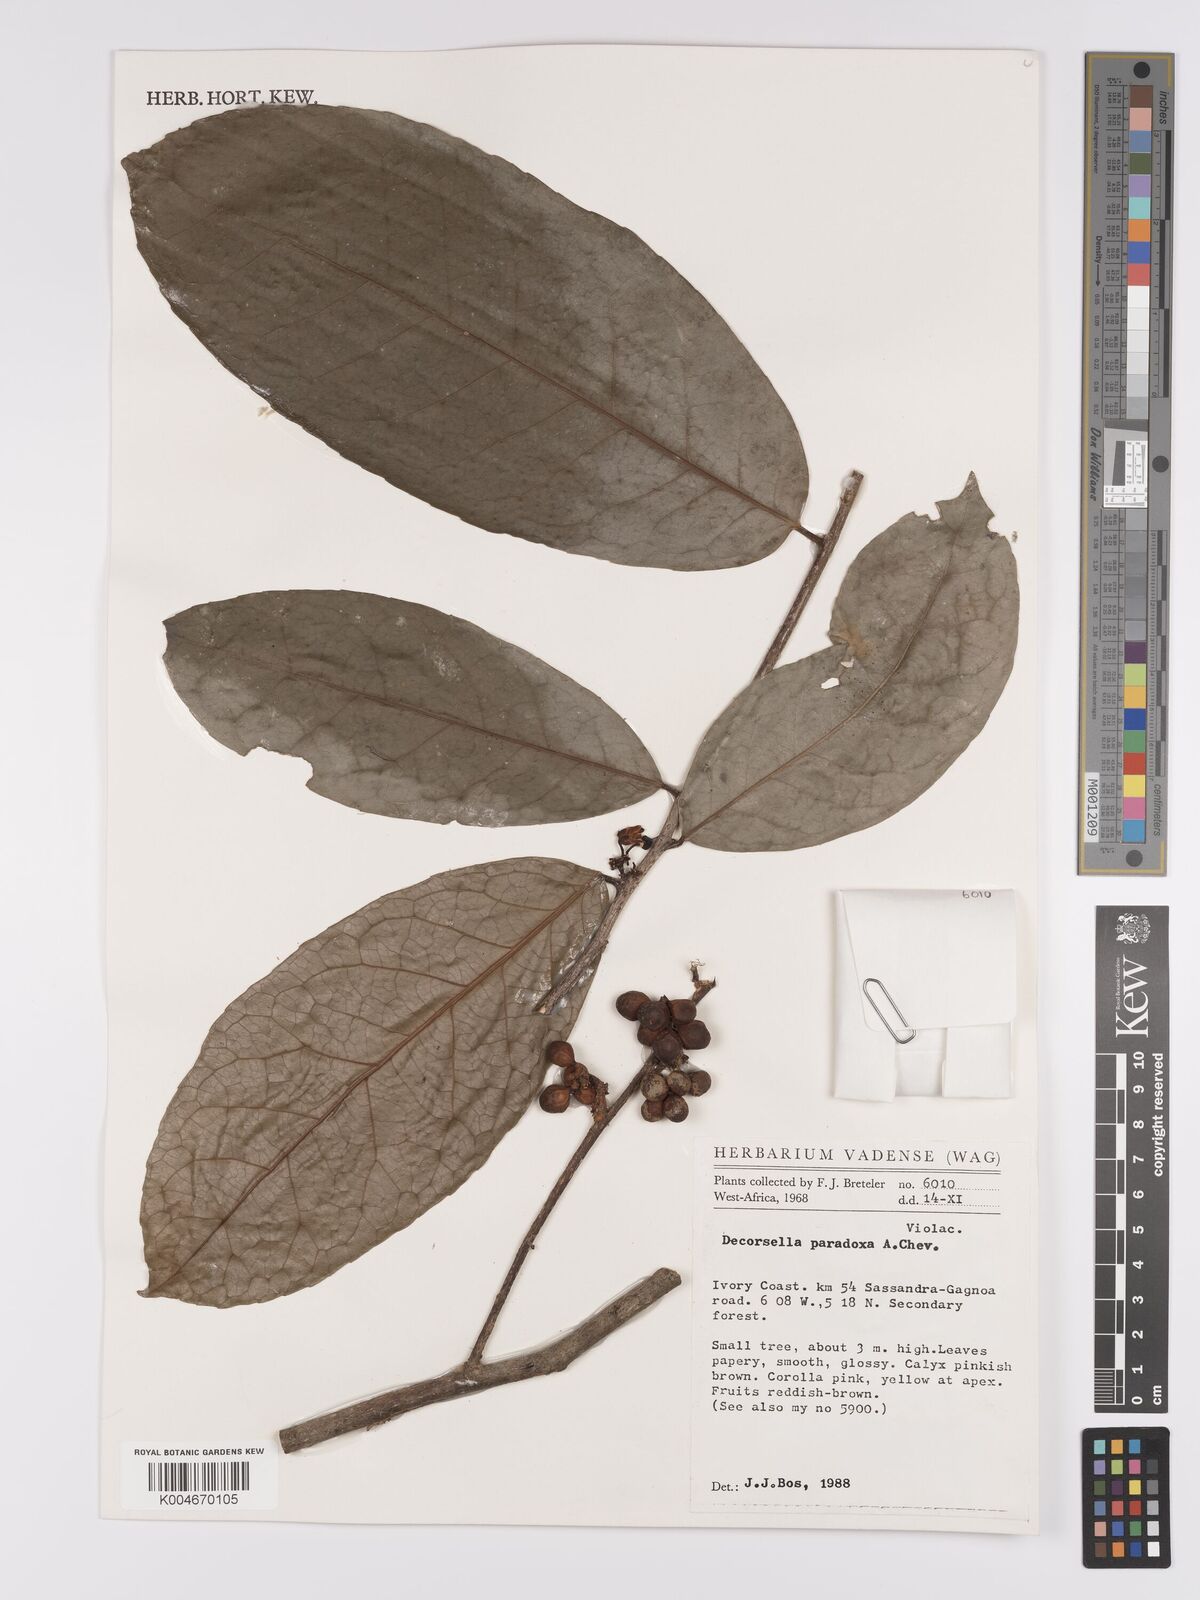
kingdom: Plantae
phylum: Tracheophyta
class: Magnoliopsida
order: Malpighiales
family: Violaceae
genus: Decorsella
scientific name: Decorsella paradoxa
